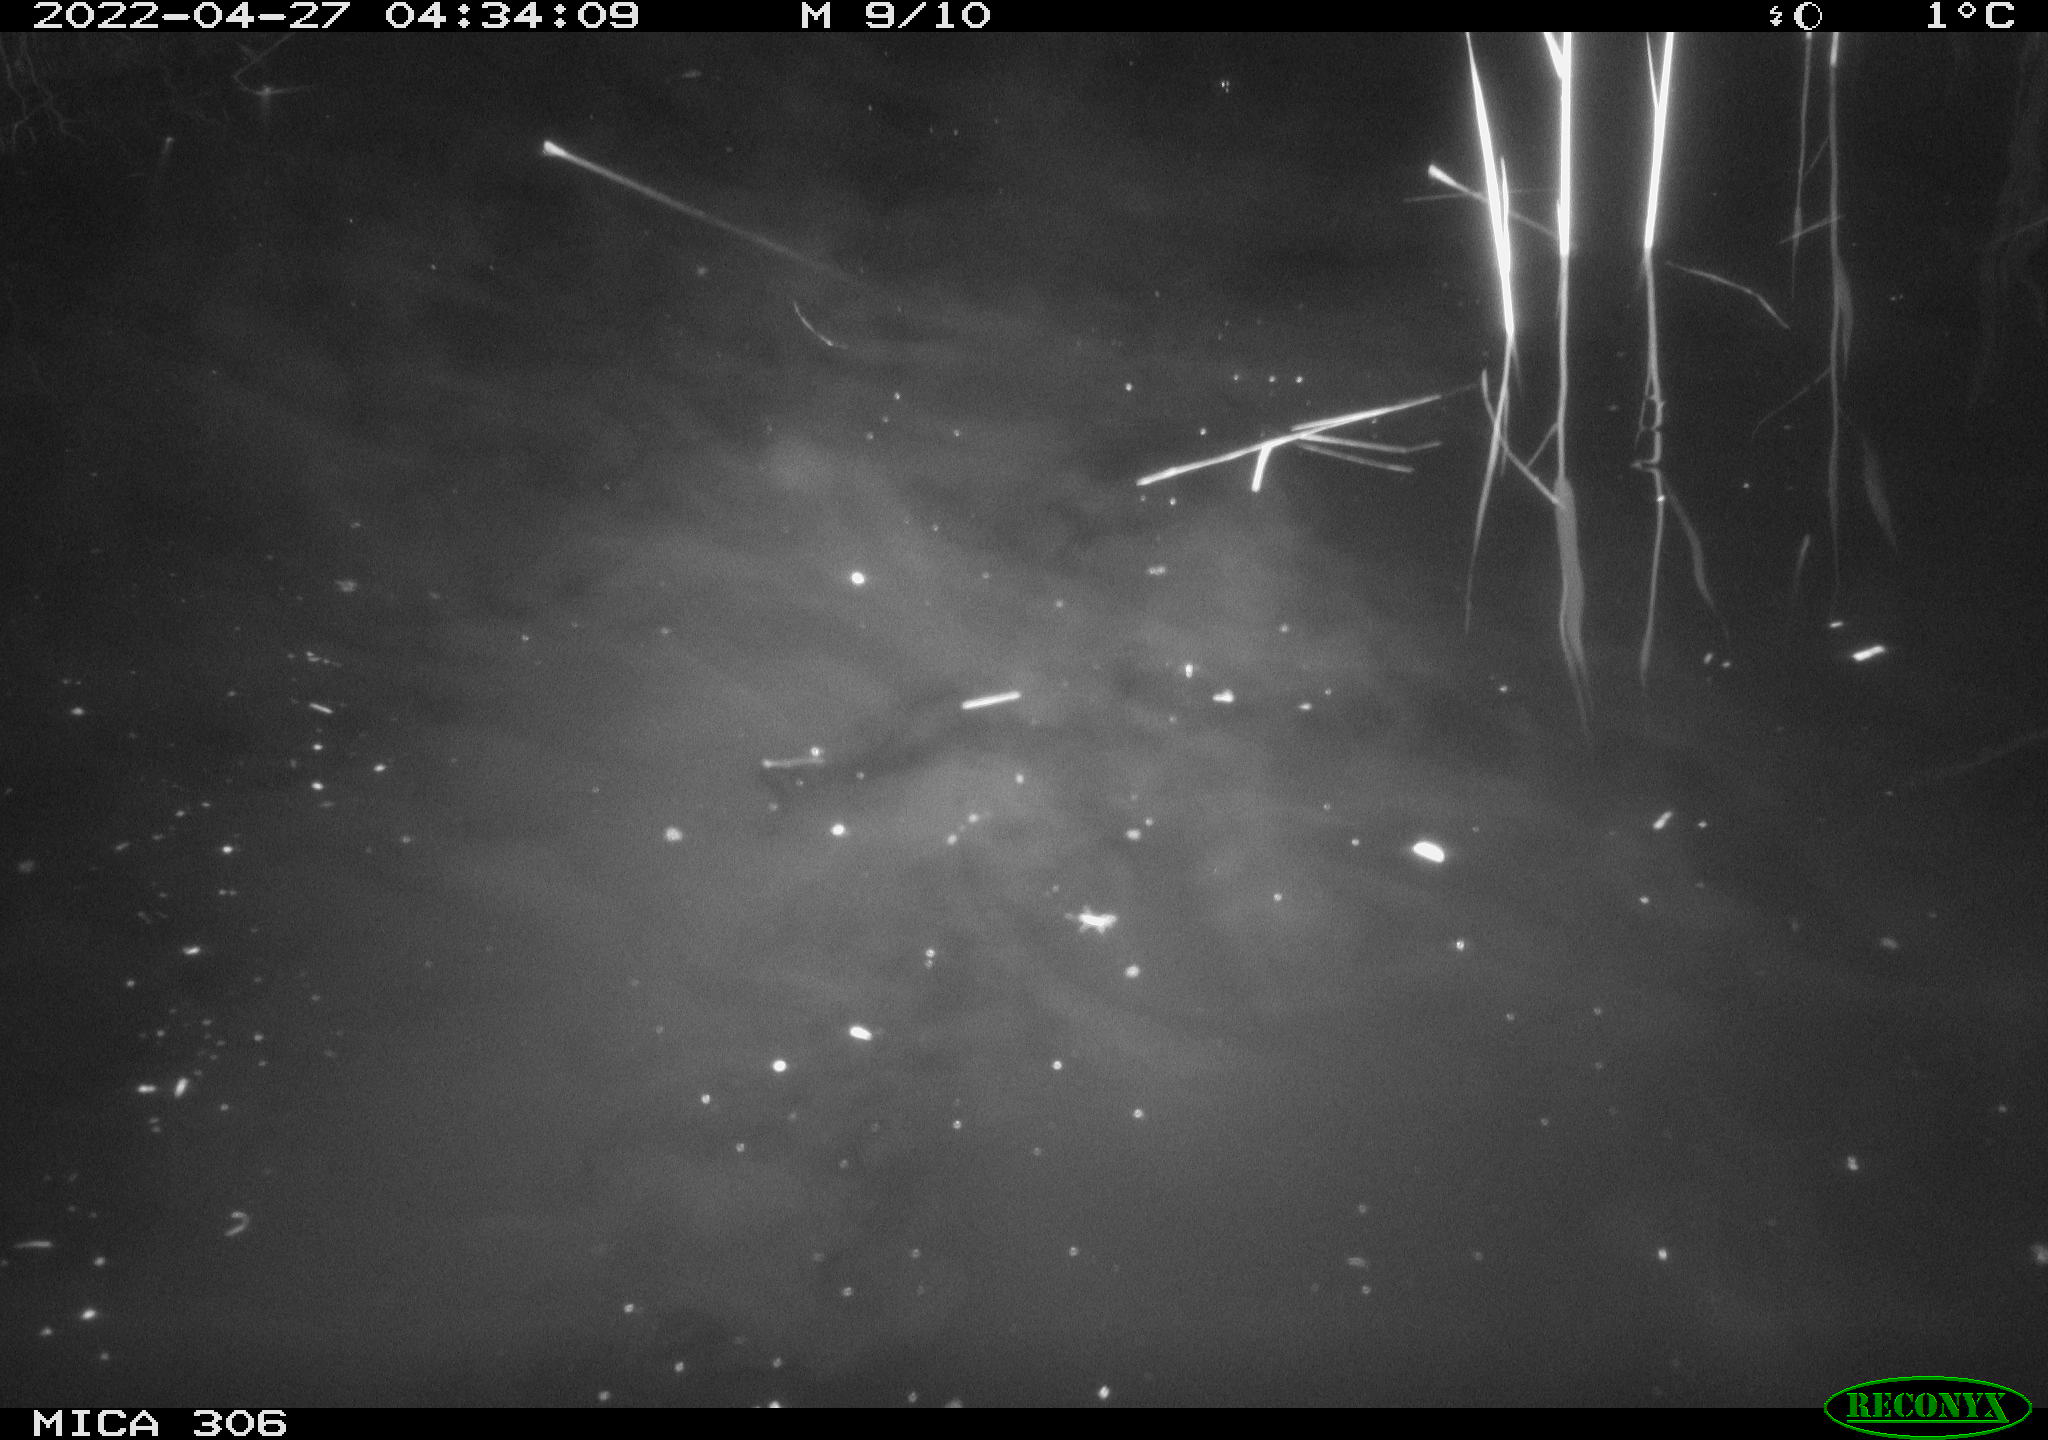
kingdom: Animalia
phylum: Chordata
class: Mammalia
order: Rodentia
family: Cricetidae
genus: Ondatra
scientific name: Ondatra zibethicus
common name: Muskrat
